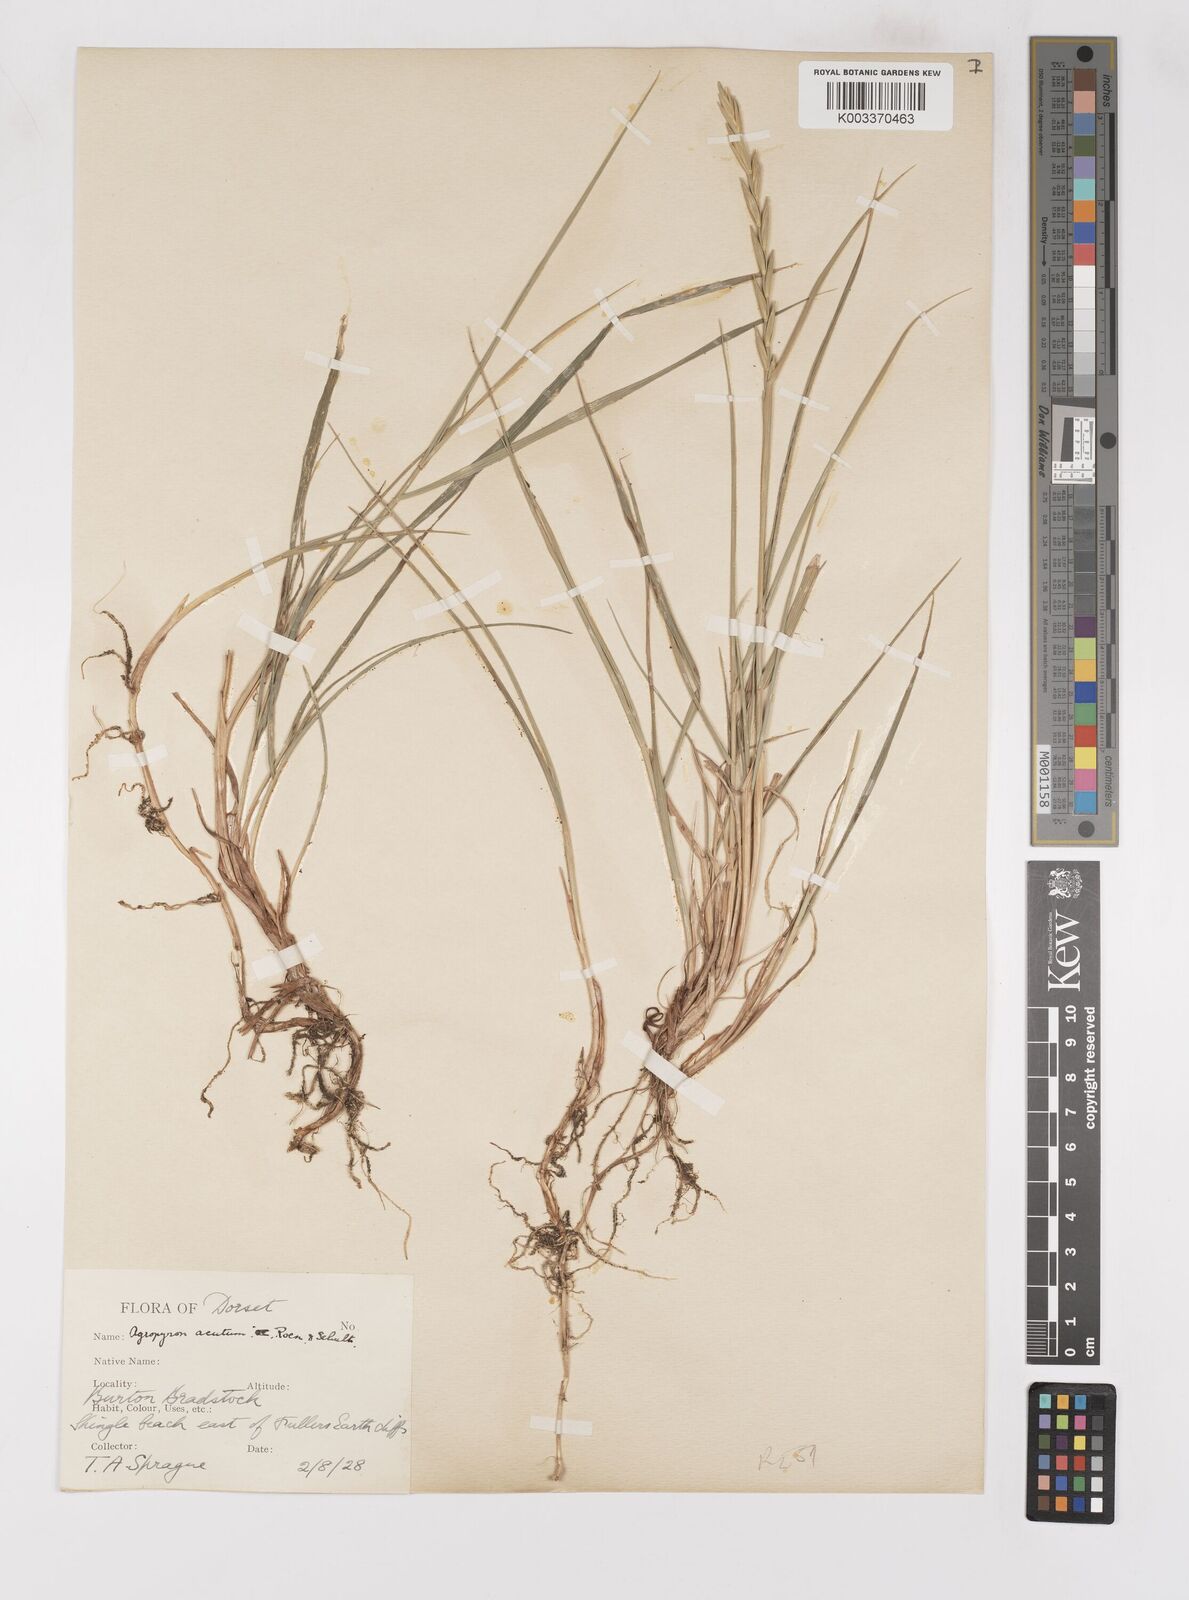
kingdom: Plantae
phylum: Tracheophyta
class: Liliopsida
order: Poales
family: Poaceae
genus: Thinoelymus
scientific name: Thinoelymus obtusiusculus
